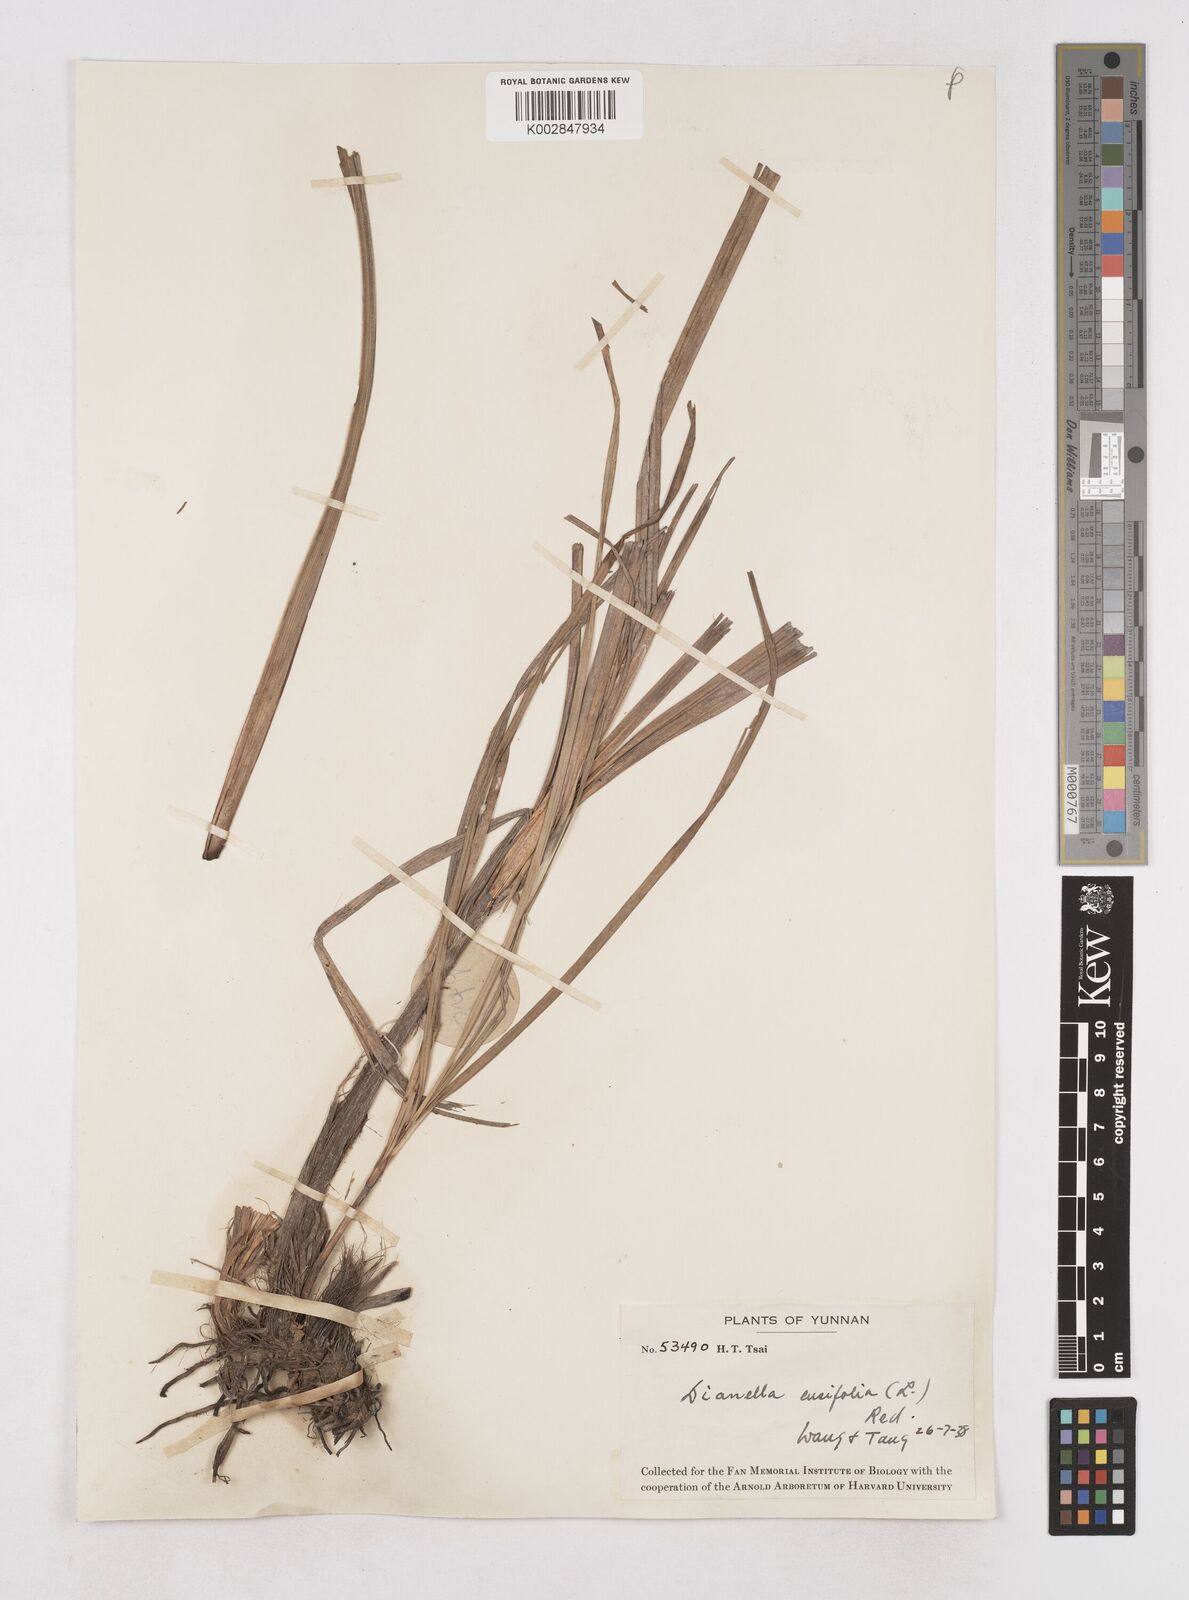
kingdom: Plantae
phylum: Tracheophyta
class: Liliopsida
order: Asparagales
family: Asphodelaceae
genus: Dianella
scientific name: Dianella ensifolia
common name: New zealand lilyplant
